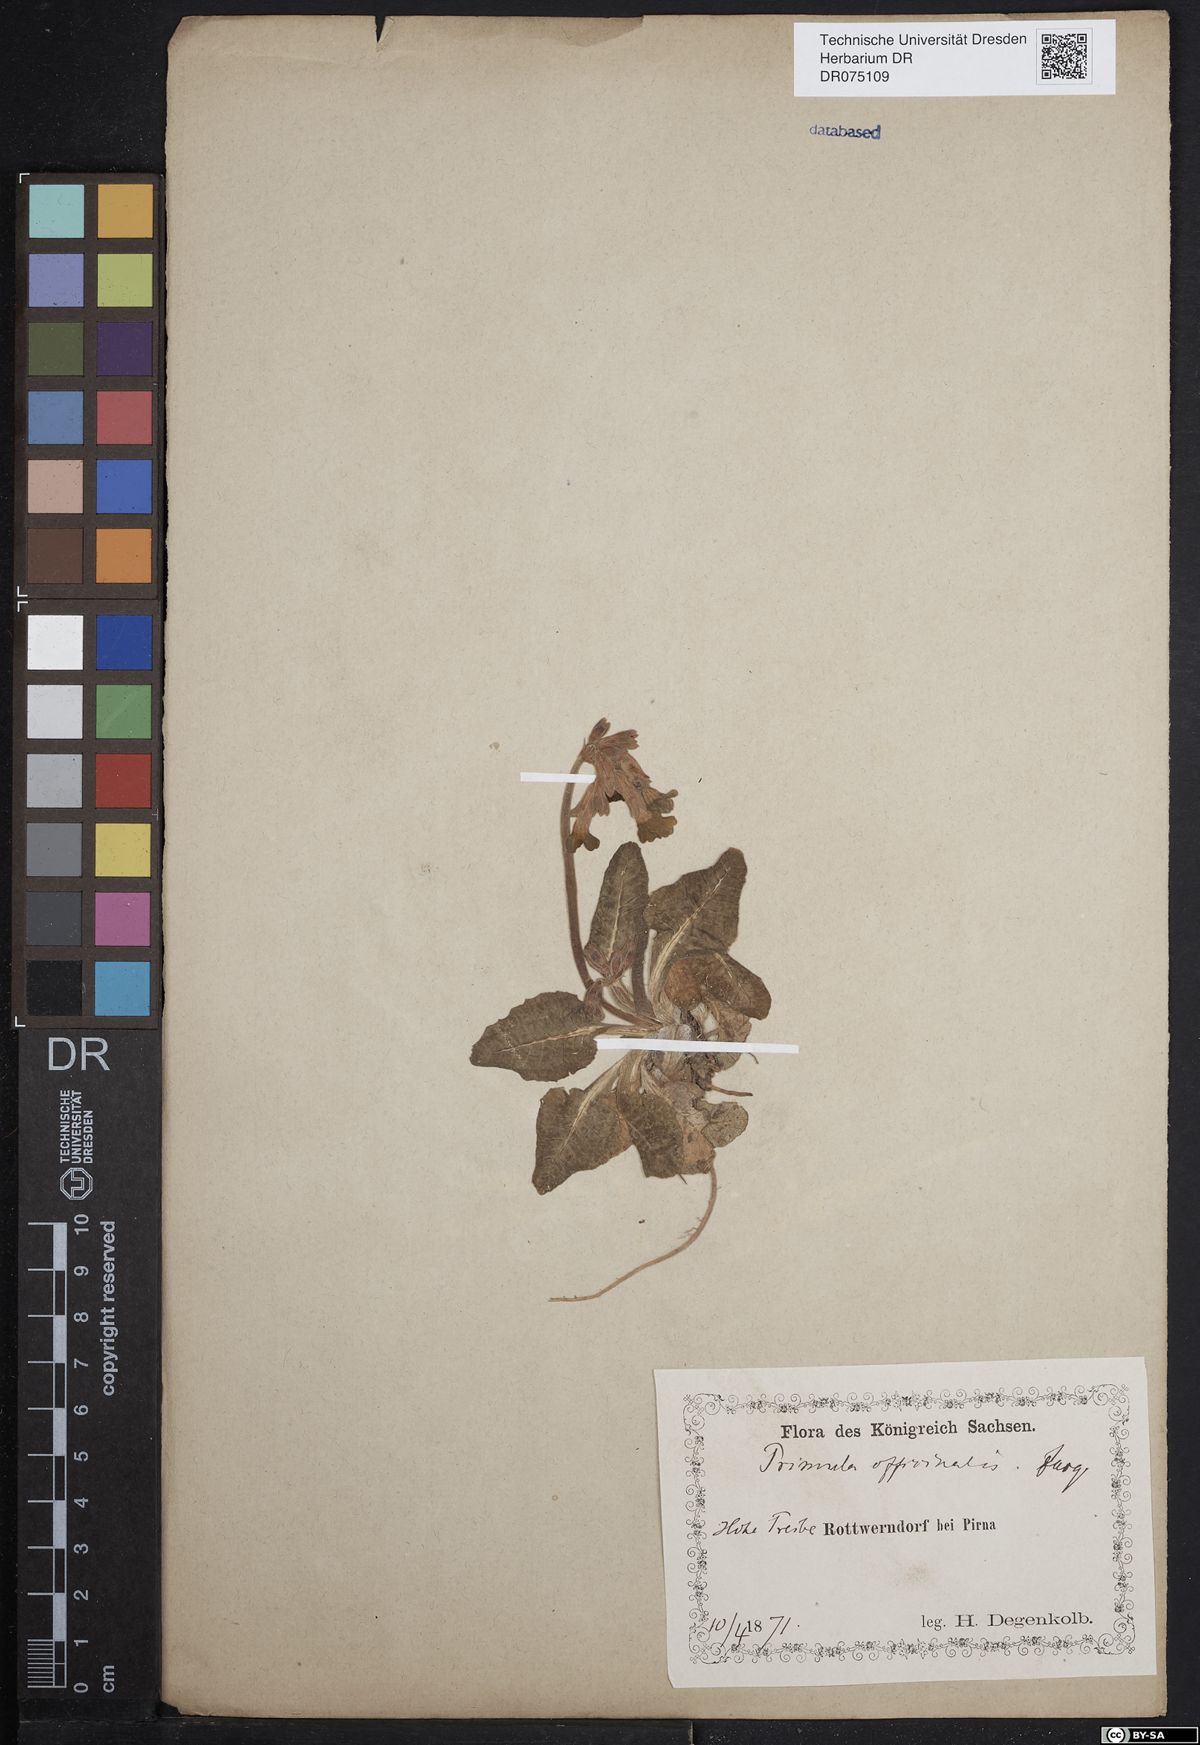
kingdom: Plantae
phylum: Tracheophyta
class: Magnoliopsida
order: Ericales
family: Primulaceae
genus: Primula
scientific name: Primula veris
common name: Cowslip
